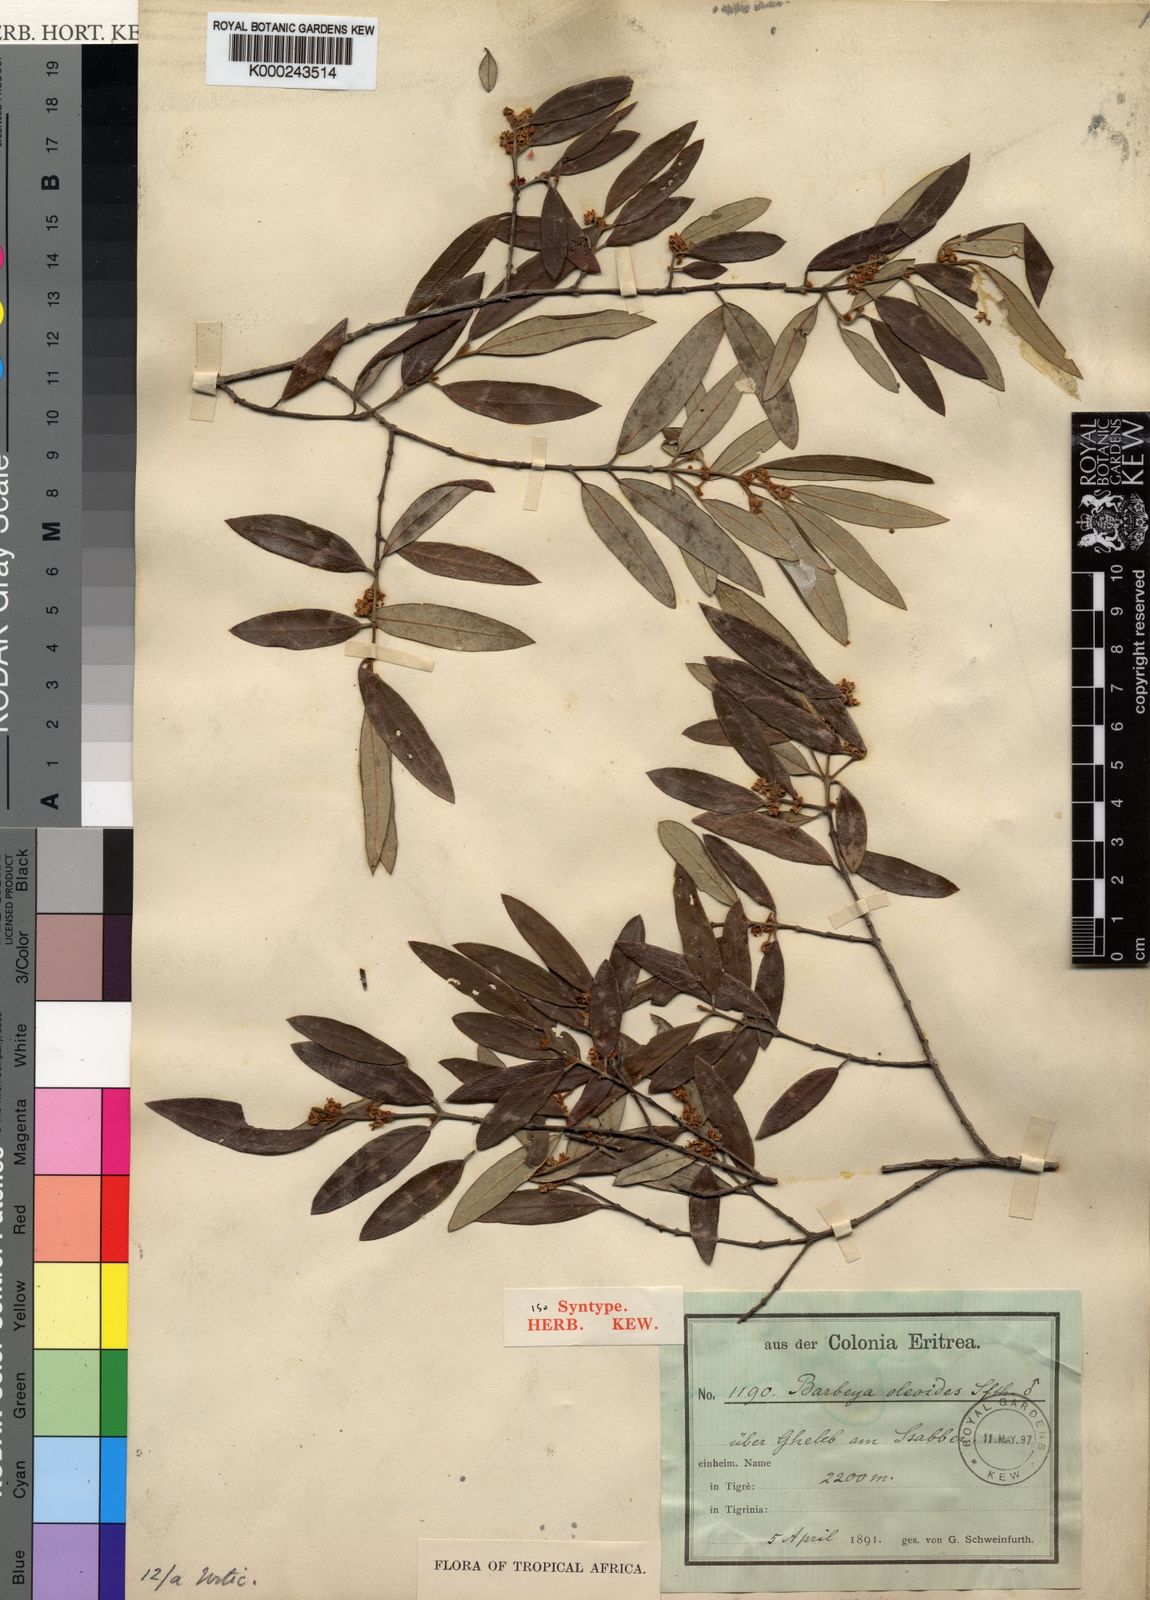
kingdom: Plantae
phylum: Tracheophyta
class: Magnoliopsida
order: Rosales
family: Barbeyaceae
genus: Barbeya
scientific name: Barbeya oleoides
